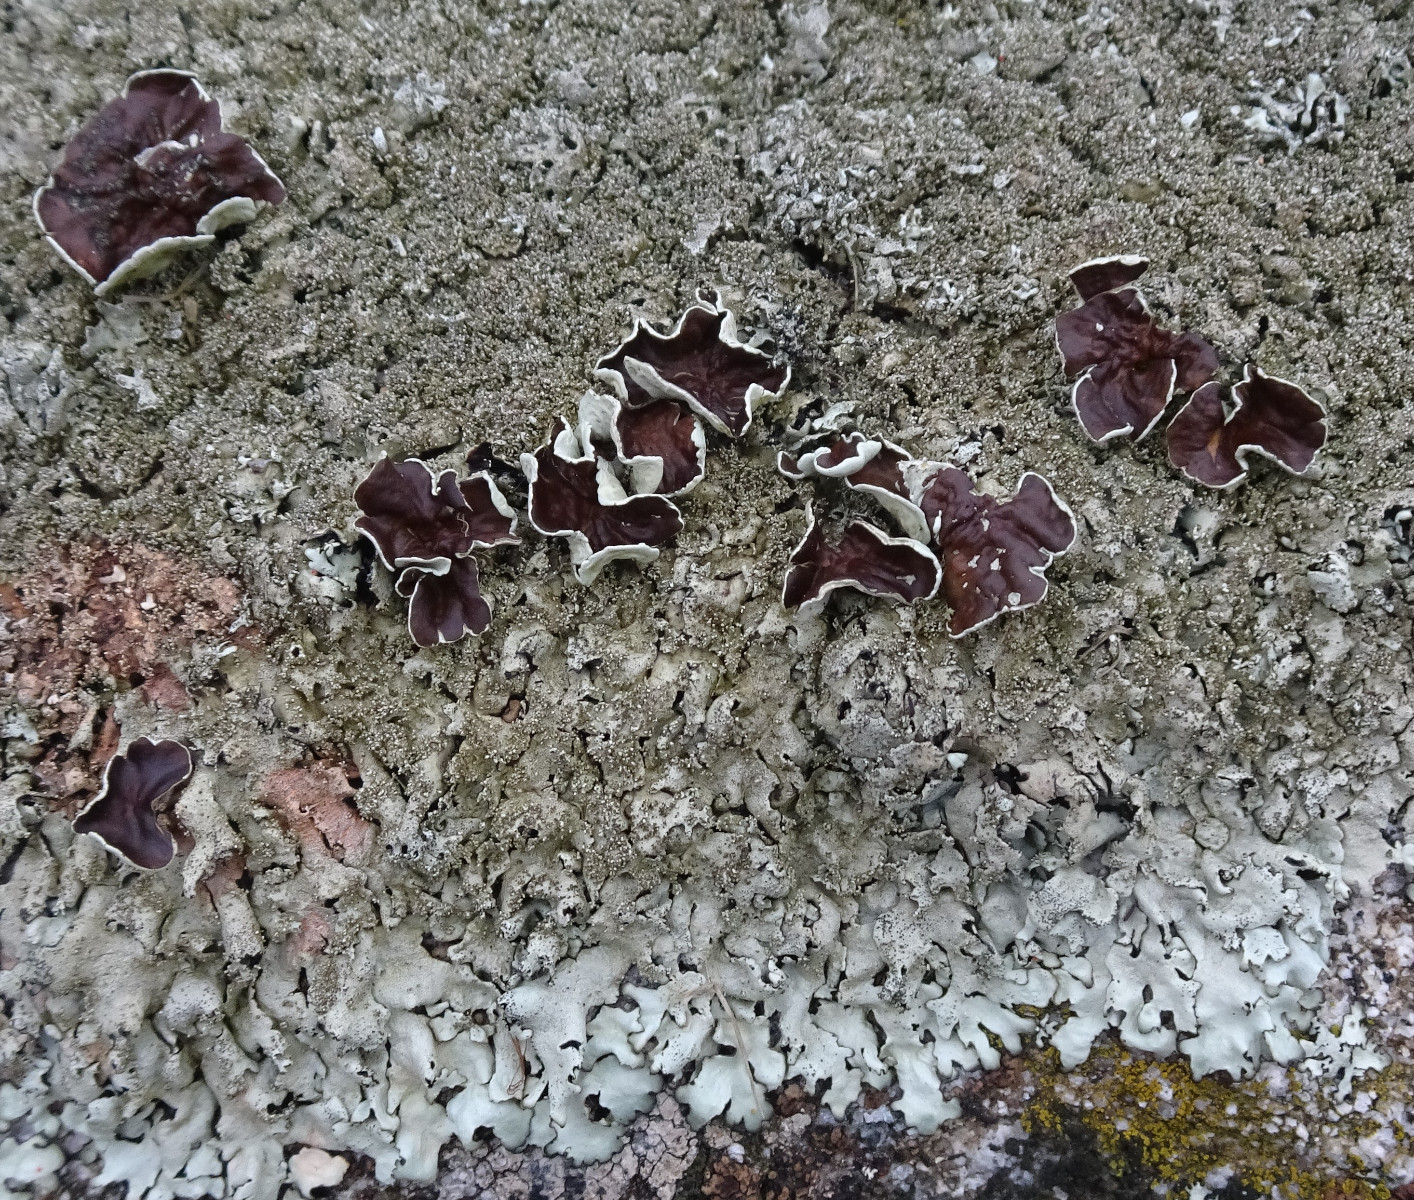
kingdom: Fungi
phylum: Ascomycota
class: Lecanoromycetes
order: Lecanorales
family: Parmeliaceae
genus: Xanthoparmelia
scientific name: Xanthoparmelia conspersa
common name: messing-skållav
